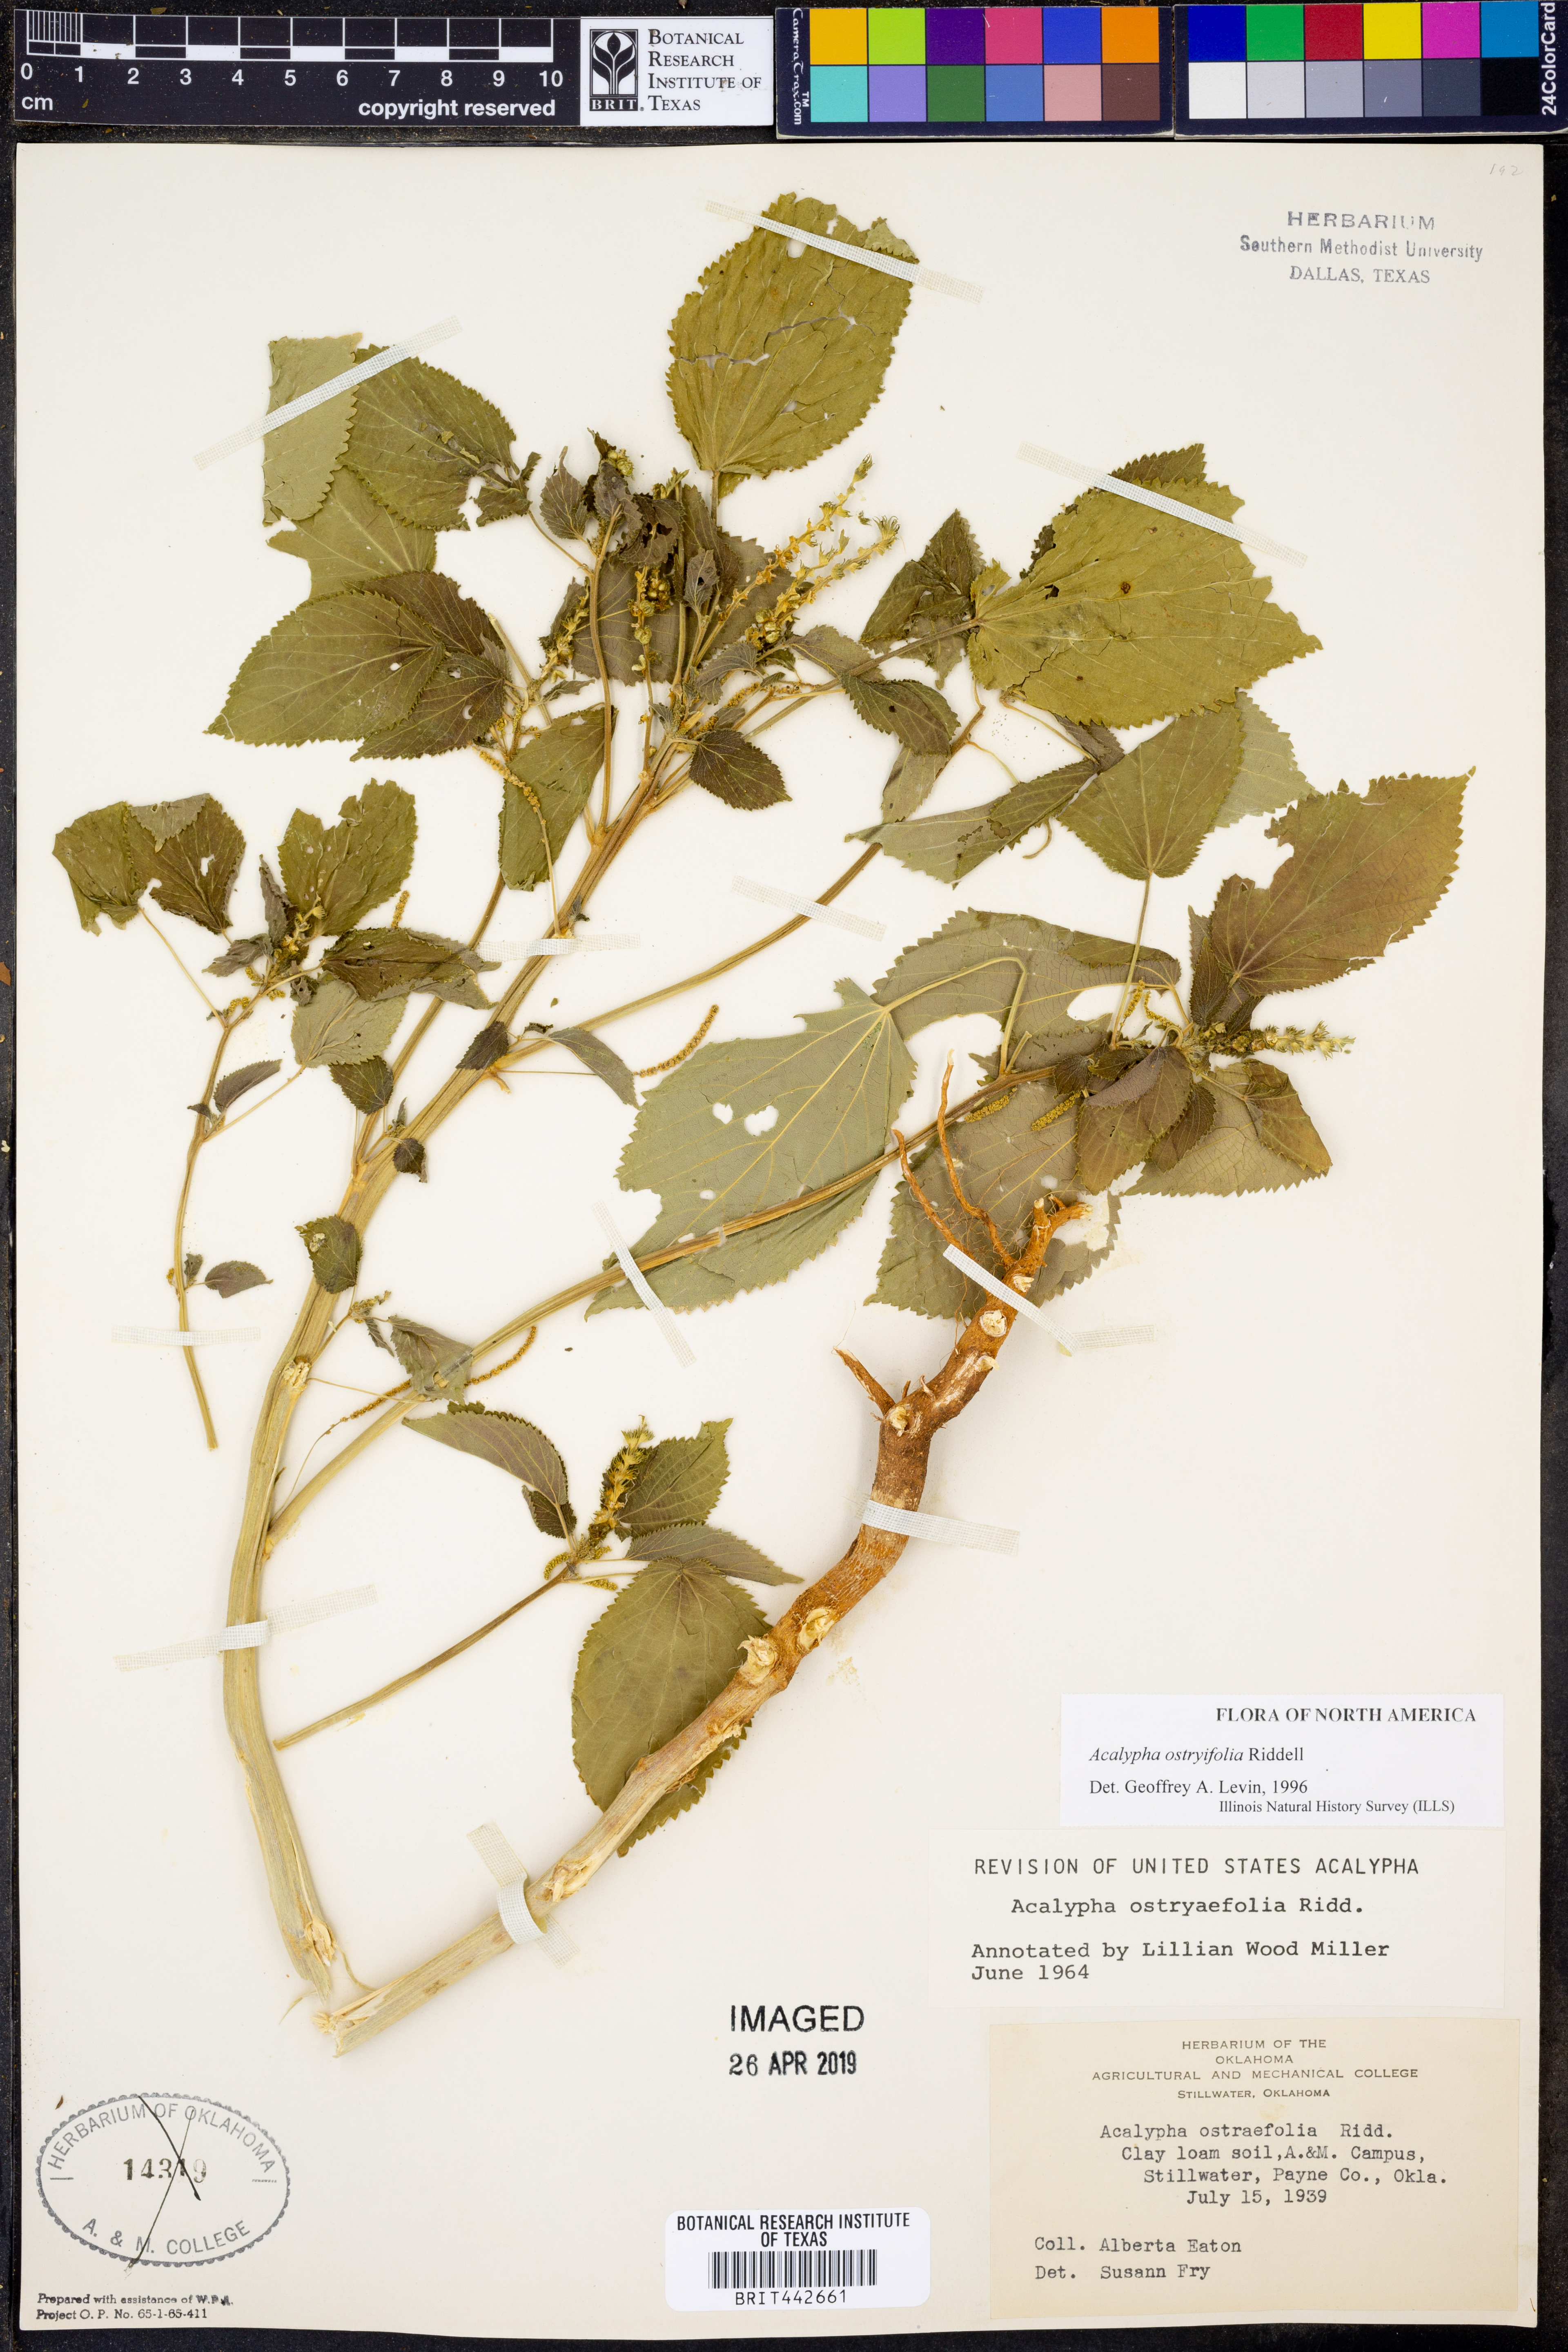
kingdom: Plantae
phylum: Tracheophyta
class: Magnoliopsida
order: Malpighiales
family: Euphorbiaceae
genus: Acalypha
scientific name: Acalypha persimilis
